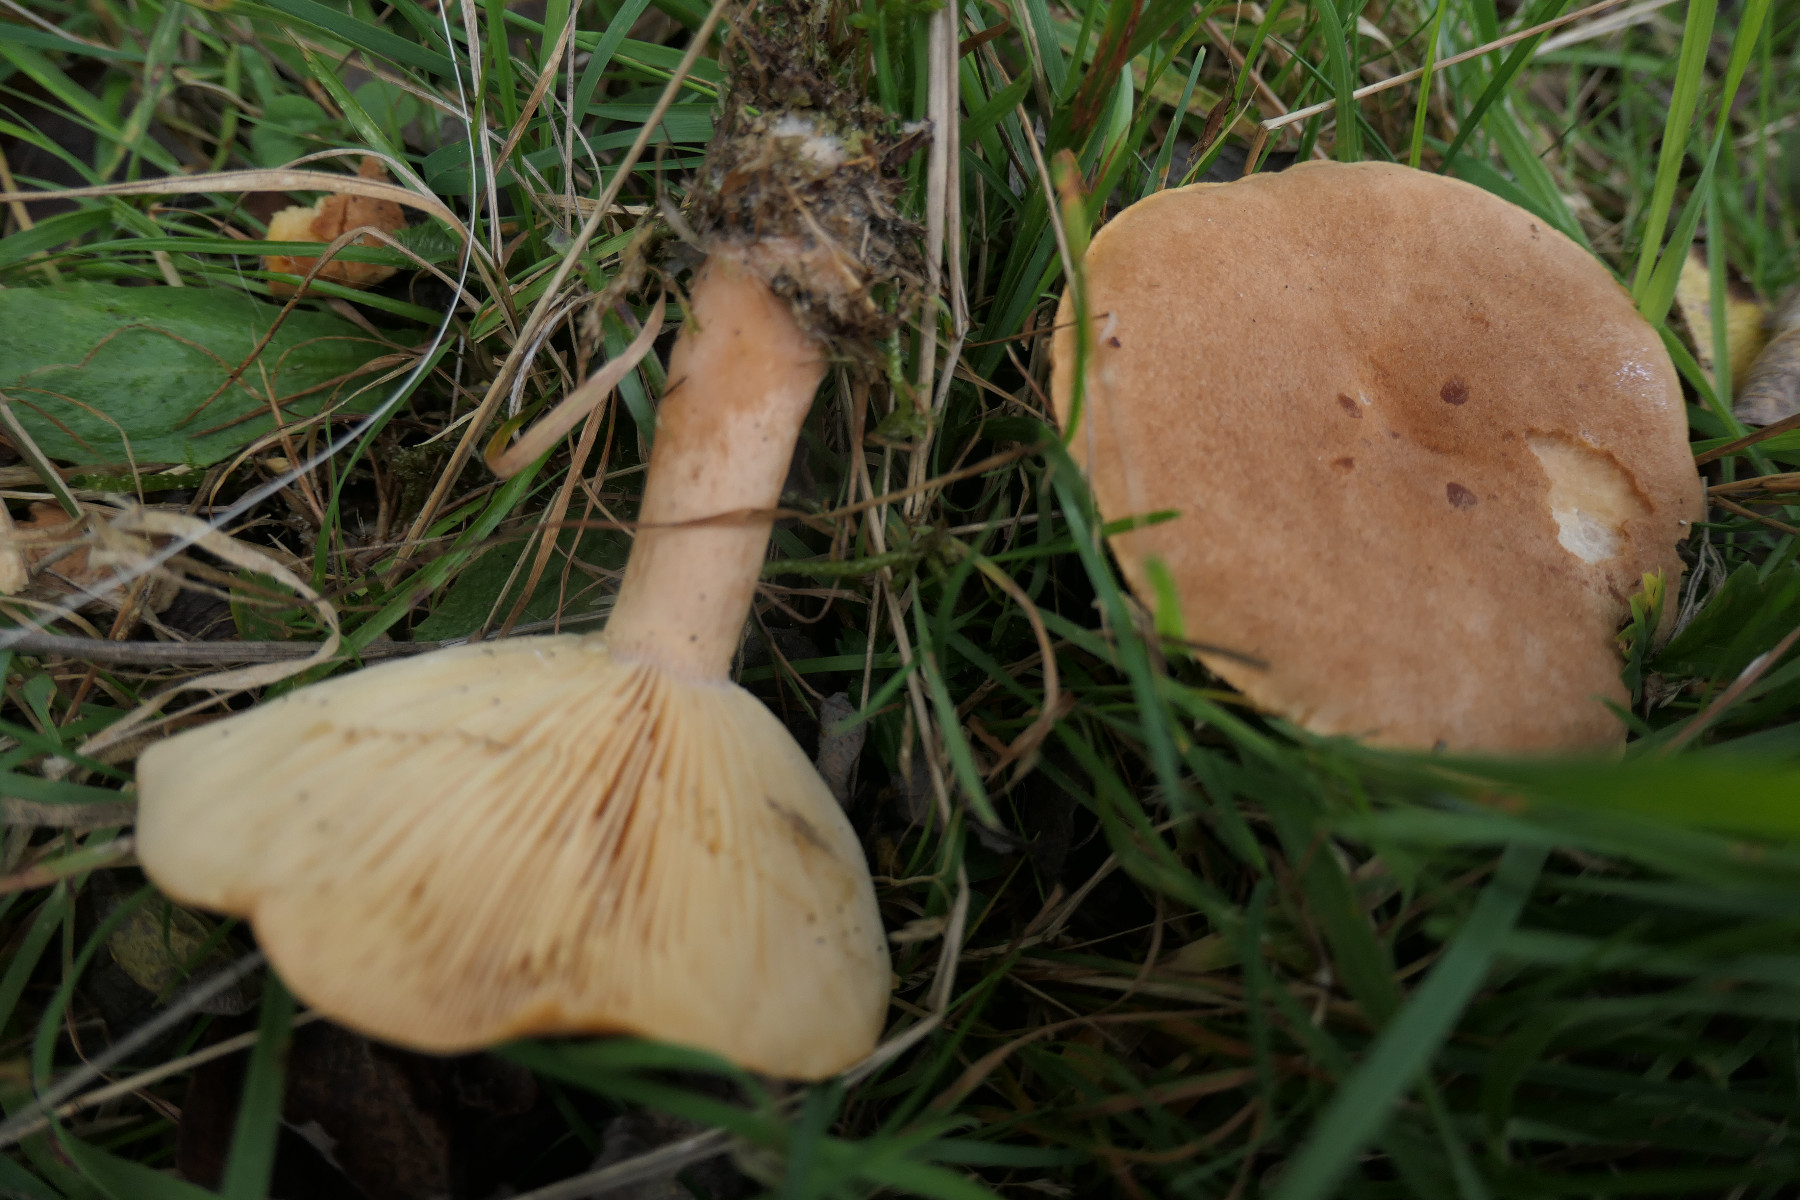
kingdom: Fungi
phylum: Basidiomycota
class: Agaricomycetes
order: Russulales
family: Russulaceae
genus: Lactarius
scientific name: Lactarius helvus
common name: mose-mælkehat
